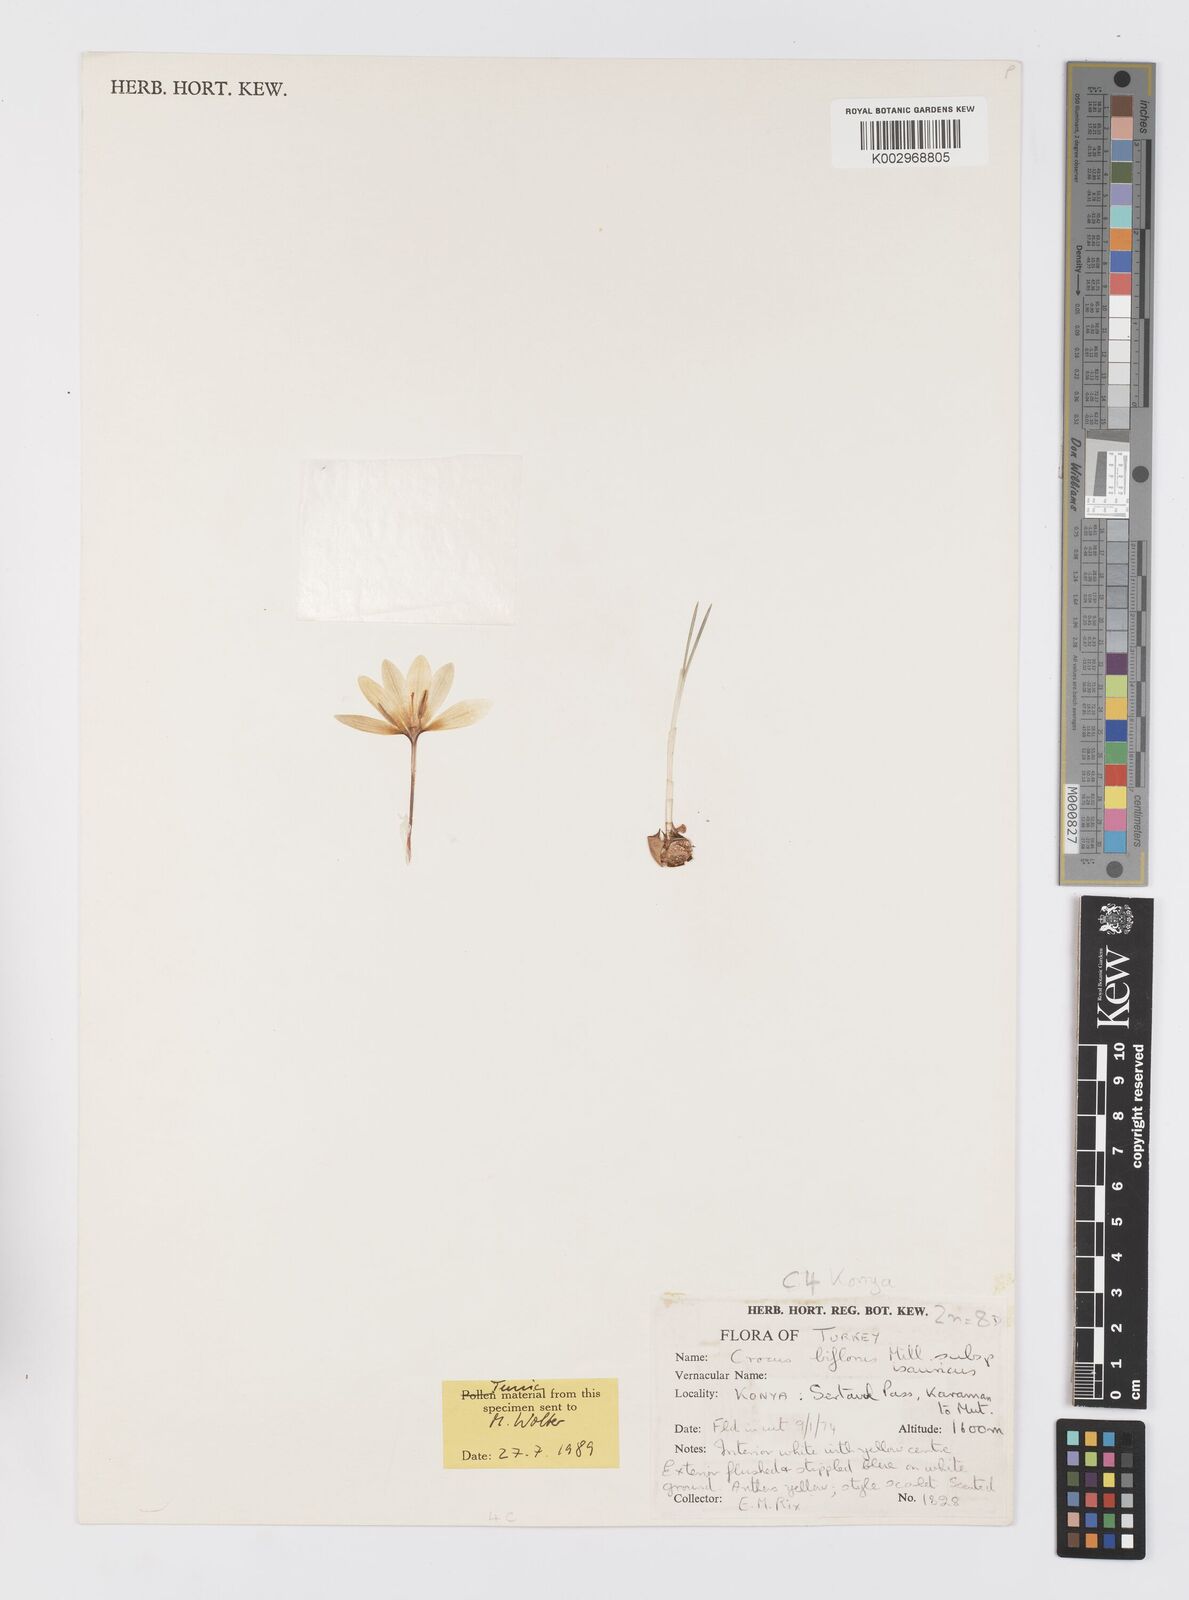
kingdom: Plantae
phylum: Tracheophyta
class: Liliopsida
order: Asparagales
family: Iridaceae
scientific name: Iridaceae
